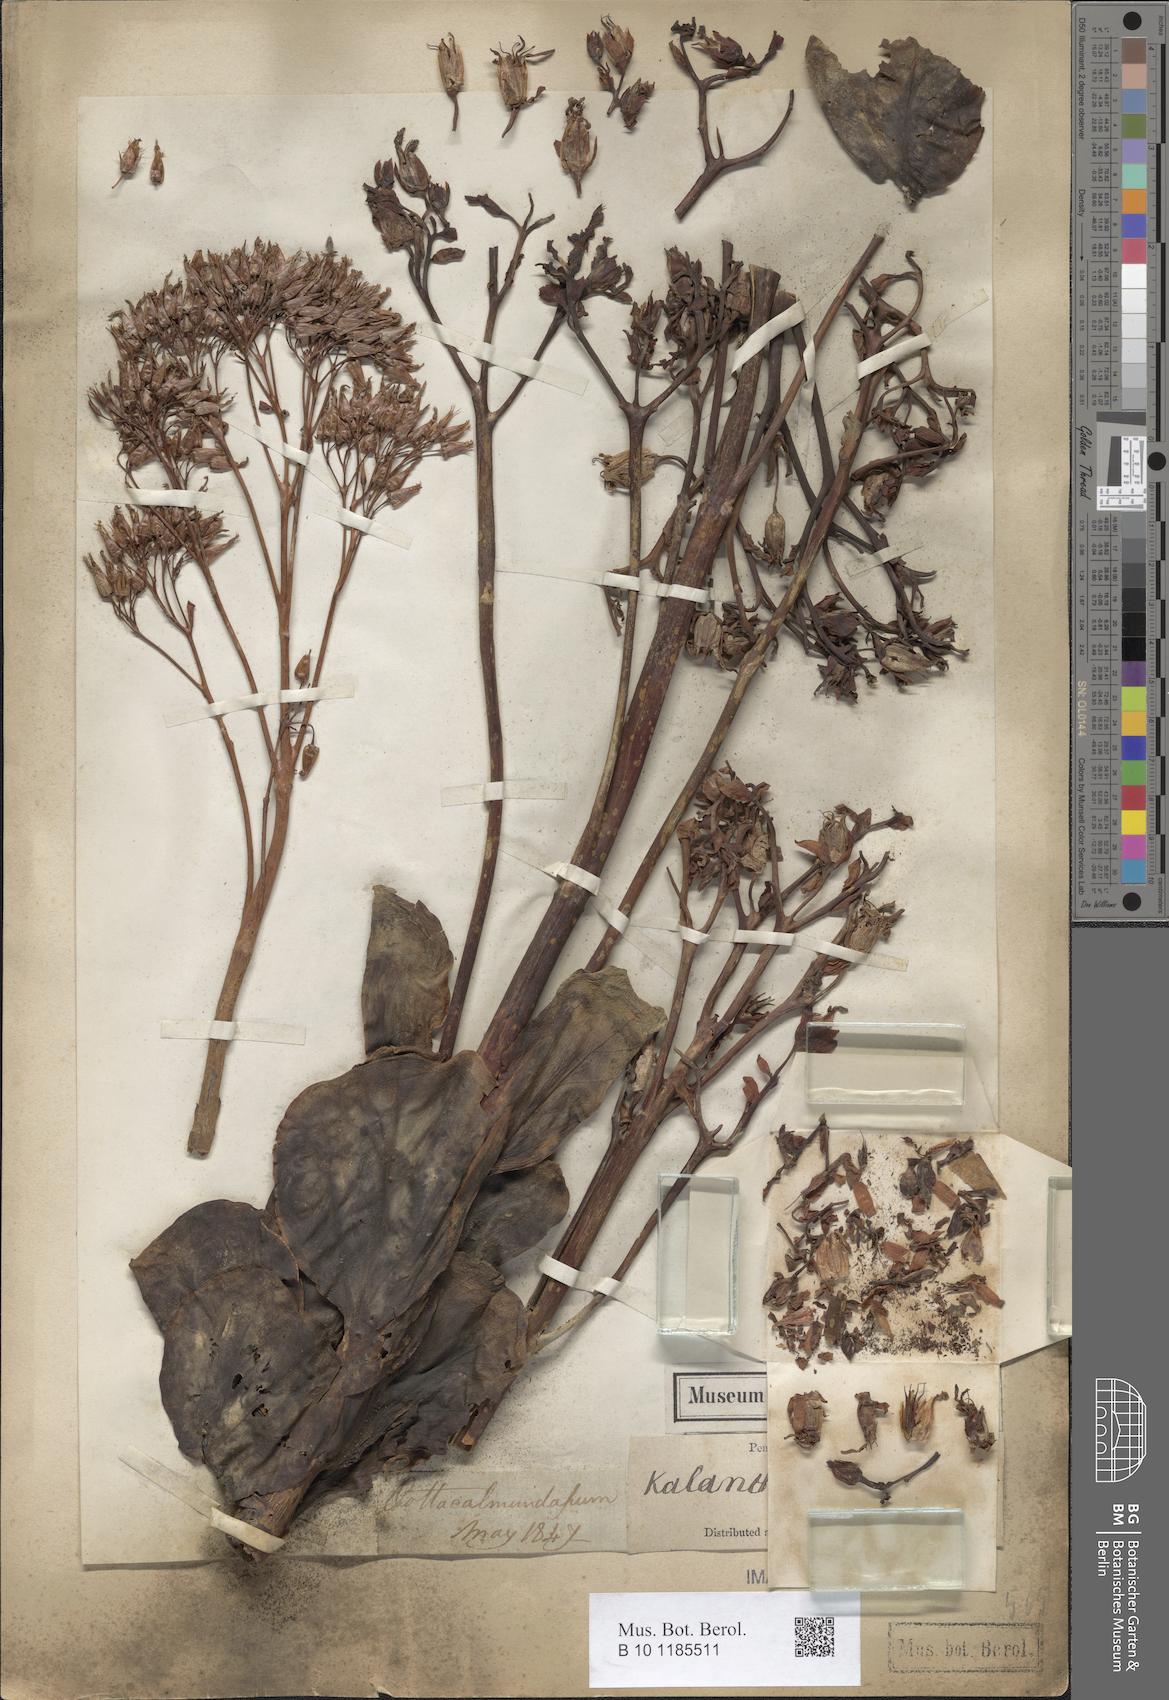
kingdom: Plantae
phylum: Tracheophyta
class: Magnoliopsida
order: Saxifragales
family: Crassulaceae
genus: Kalanchoe
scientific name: Kalanchoe grandiflora
